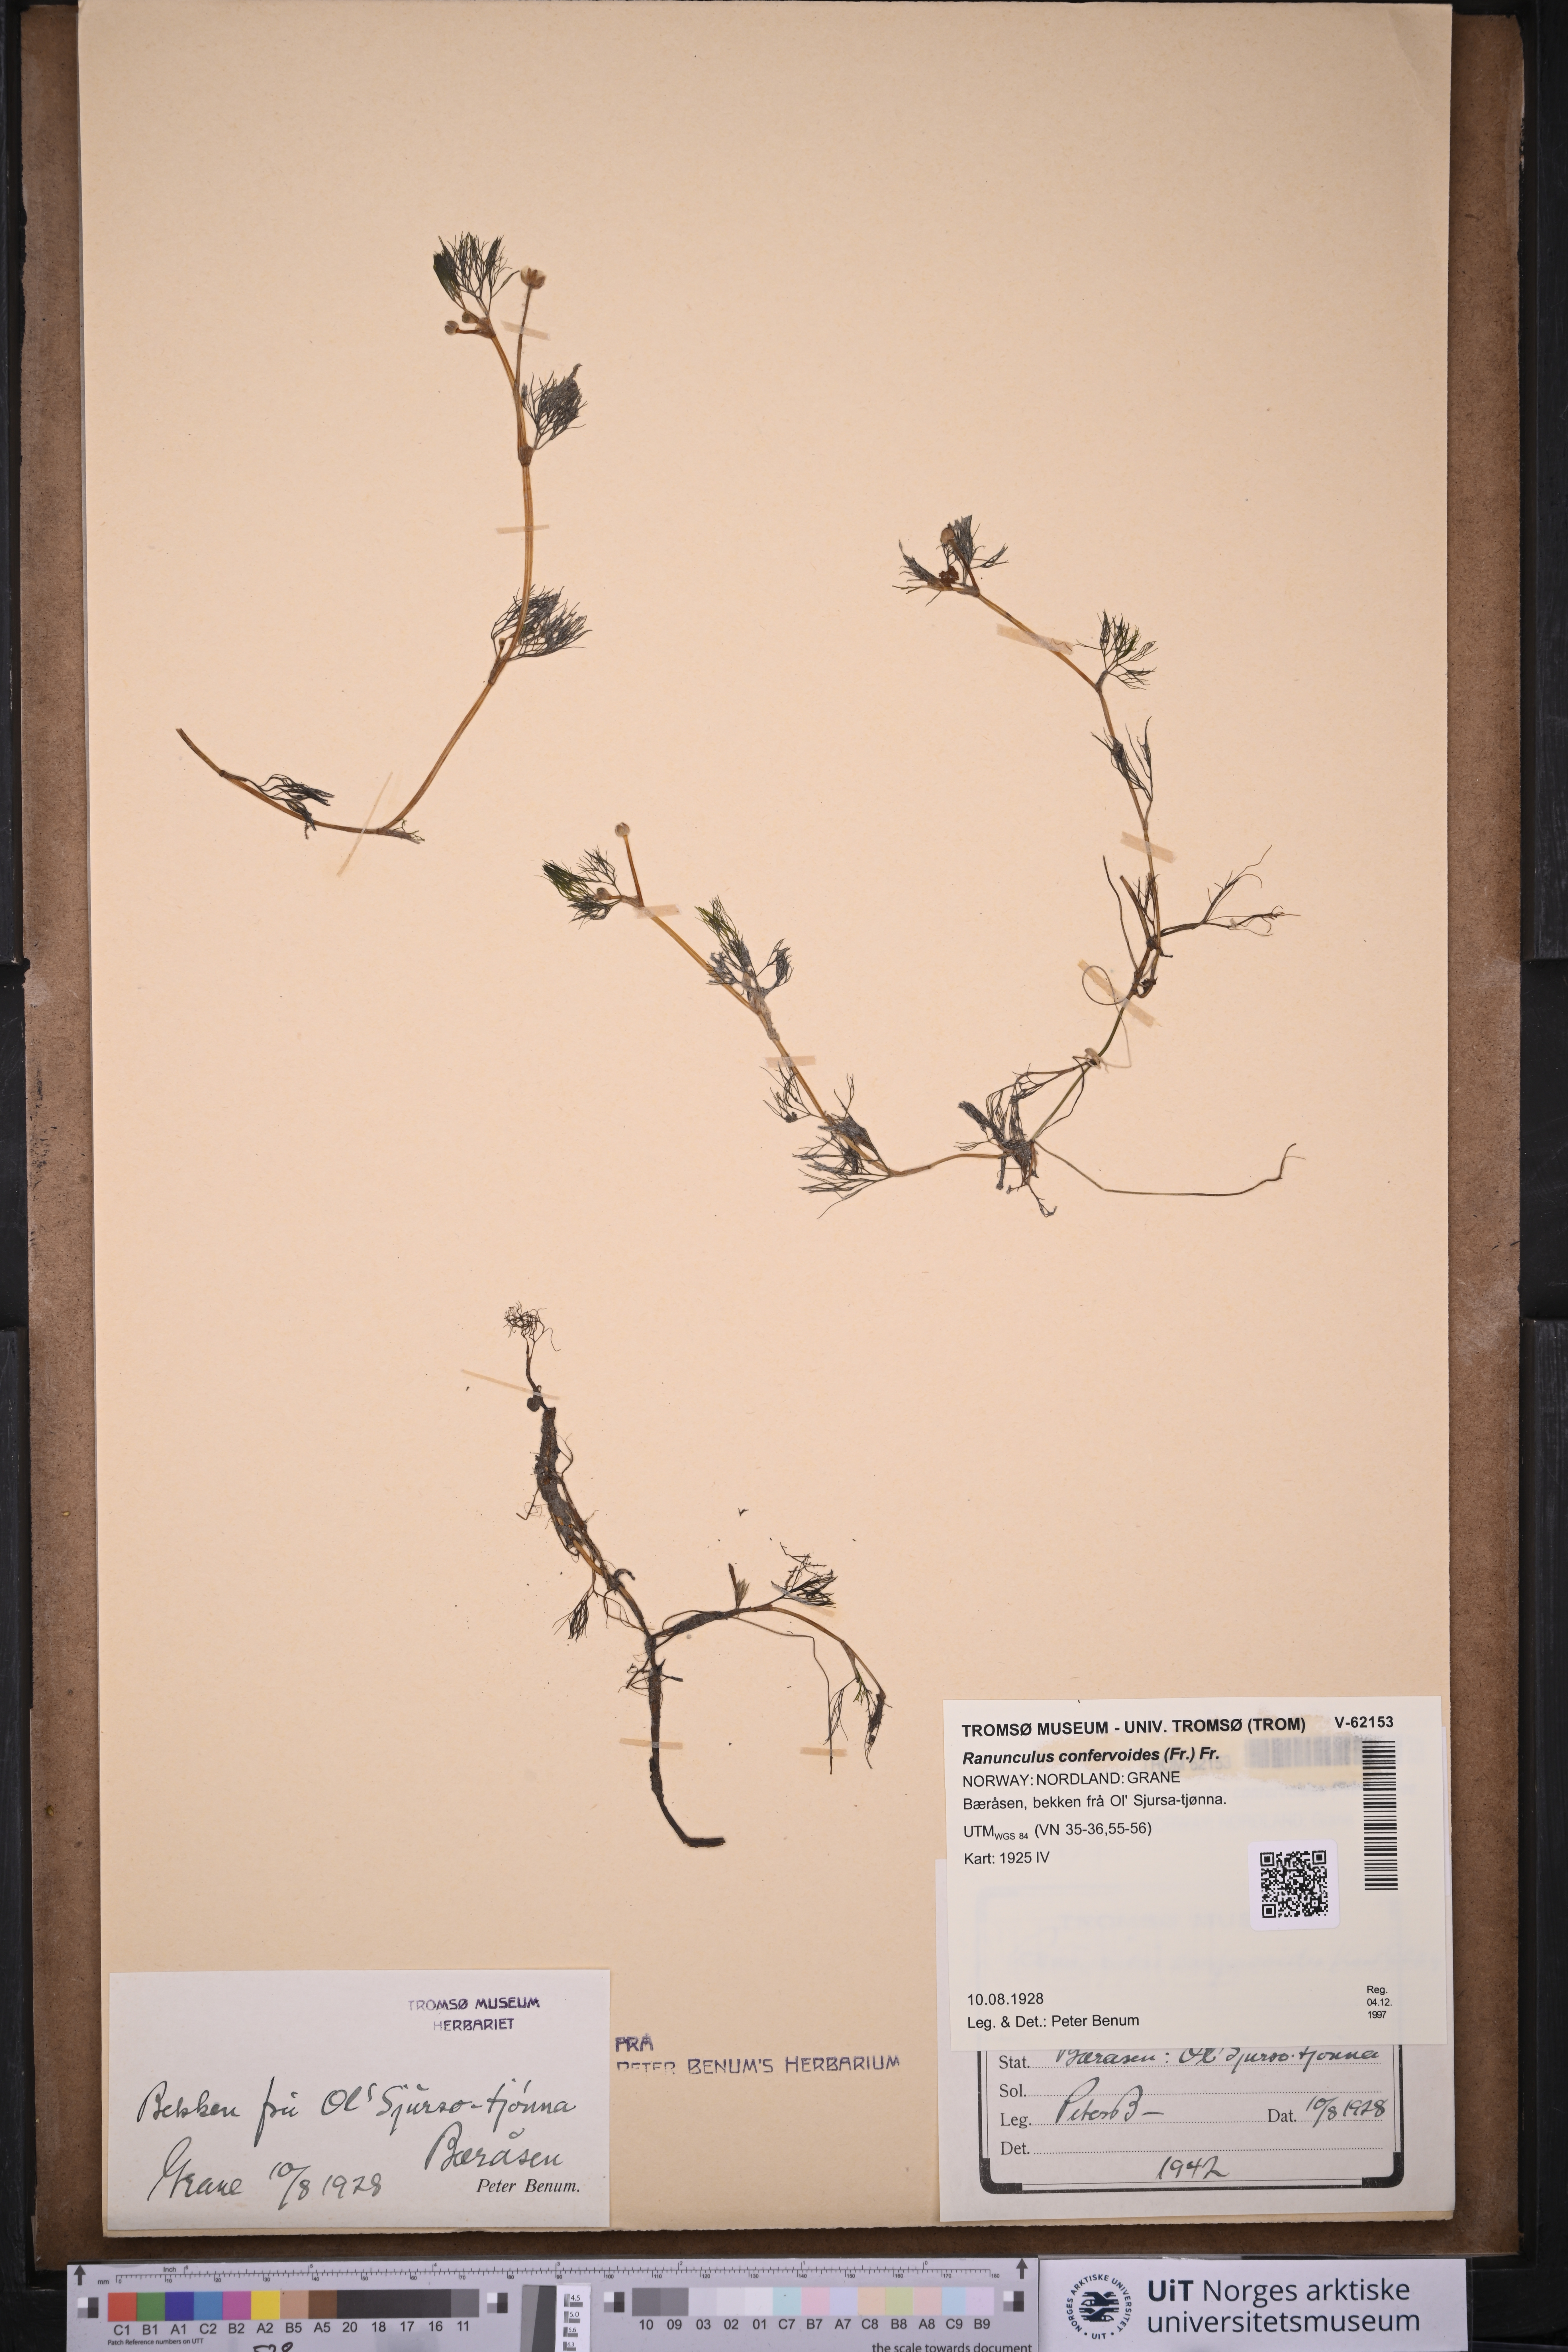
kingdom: Plantae
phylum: Tracheophyta
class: Magnoliopsida
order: Ranunculales
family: Ranunculaceae
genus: Ranunculus
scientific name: Ranunculus confervoides
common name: Delicate buttercup
